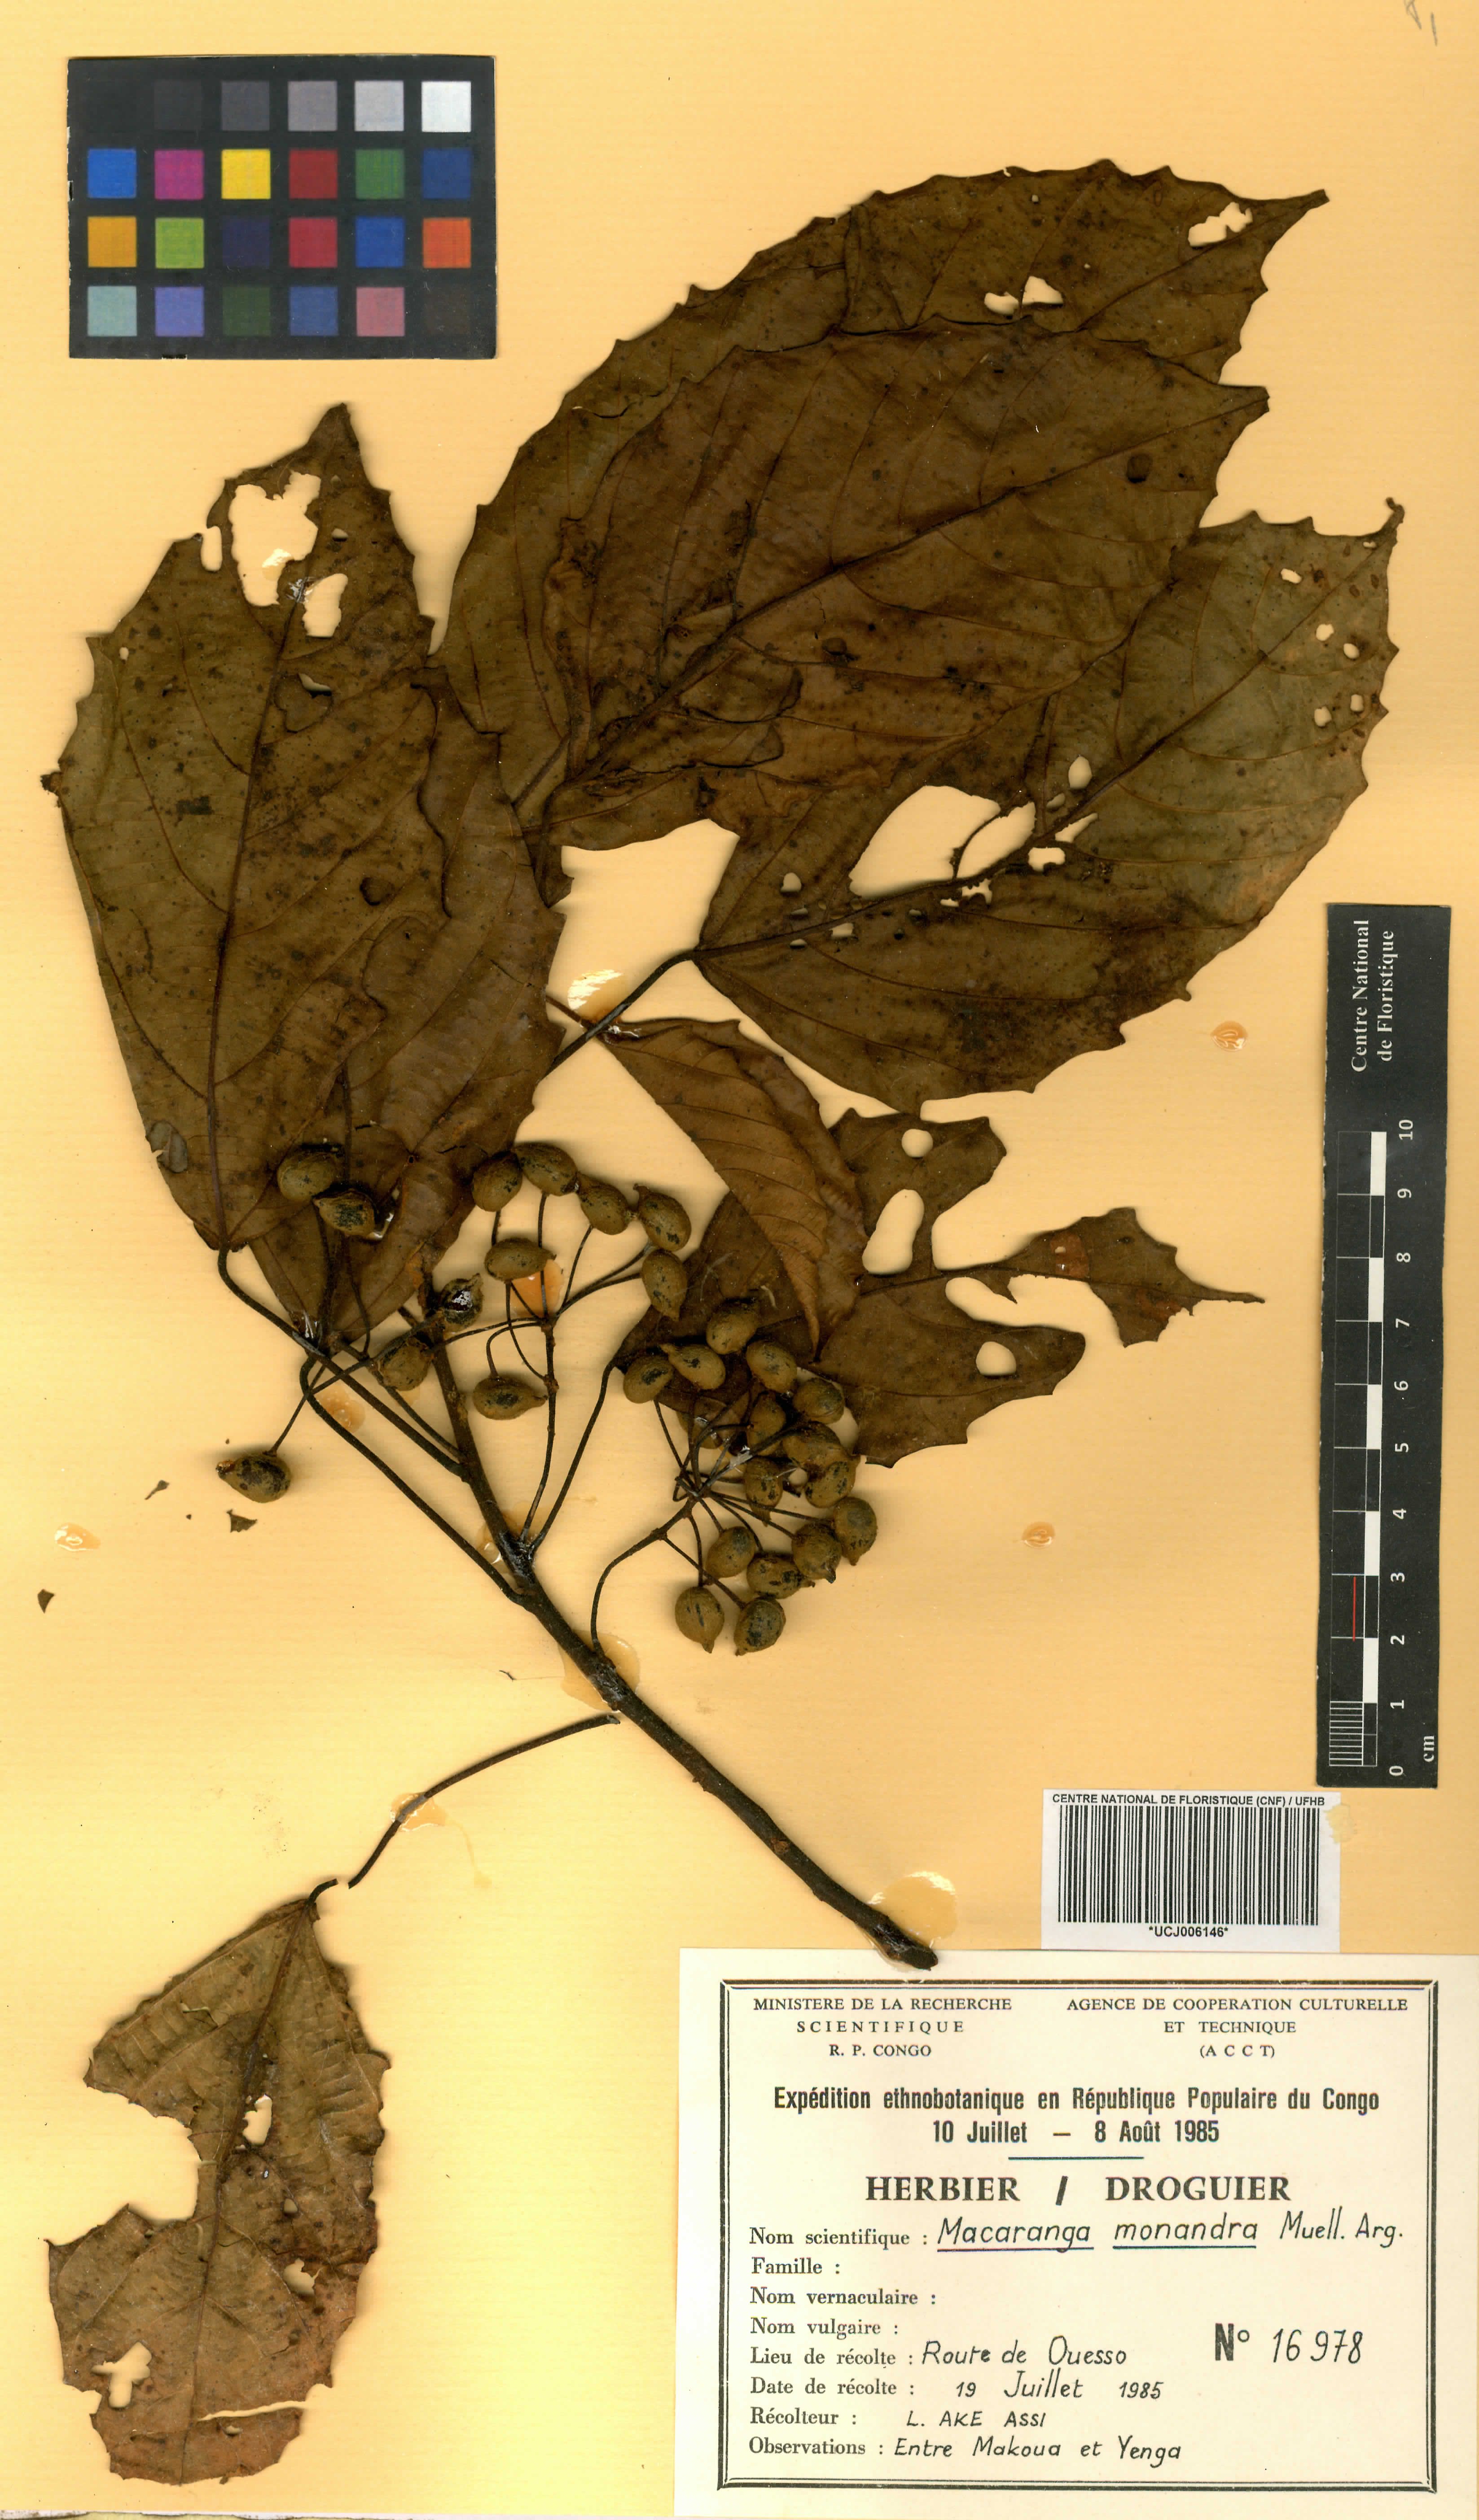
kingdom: Plantae
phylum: Tracheophyta
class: Magnoliopsida
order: Malpighiales
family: Euphorbiaceae
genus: Macaranga
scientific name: Macaranga monandra
